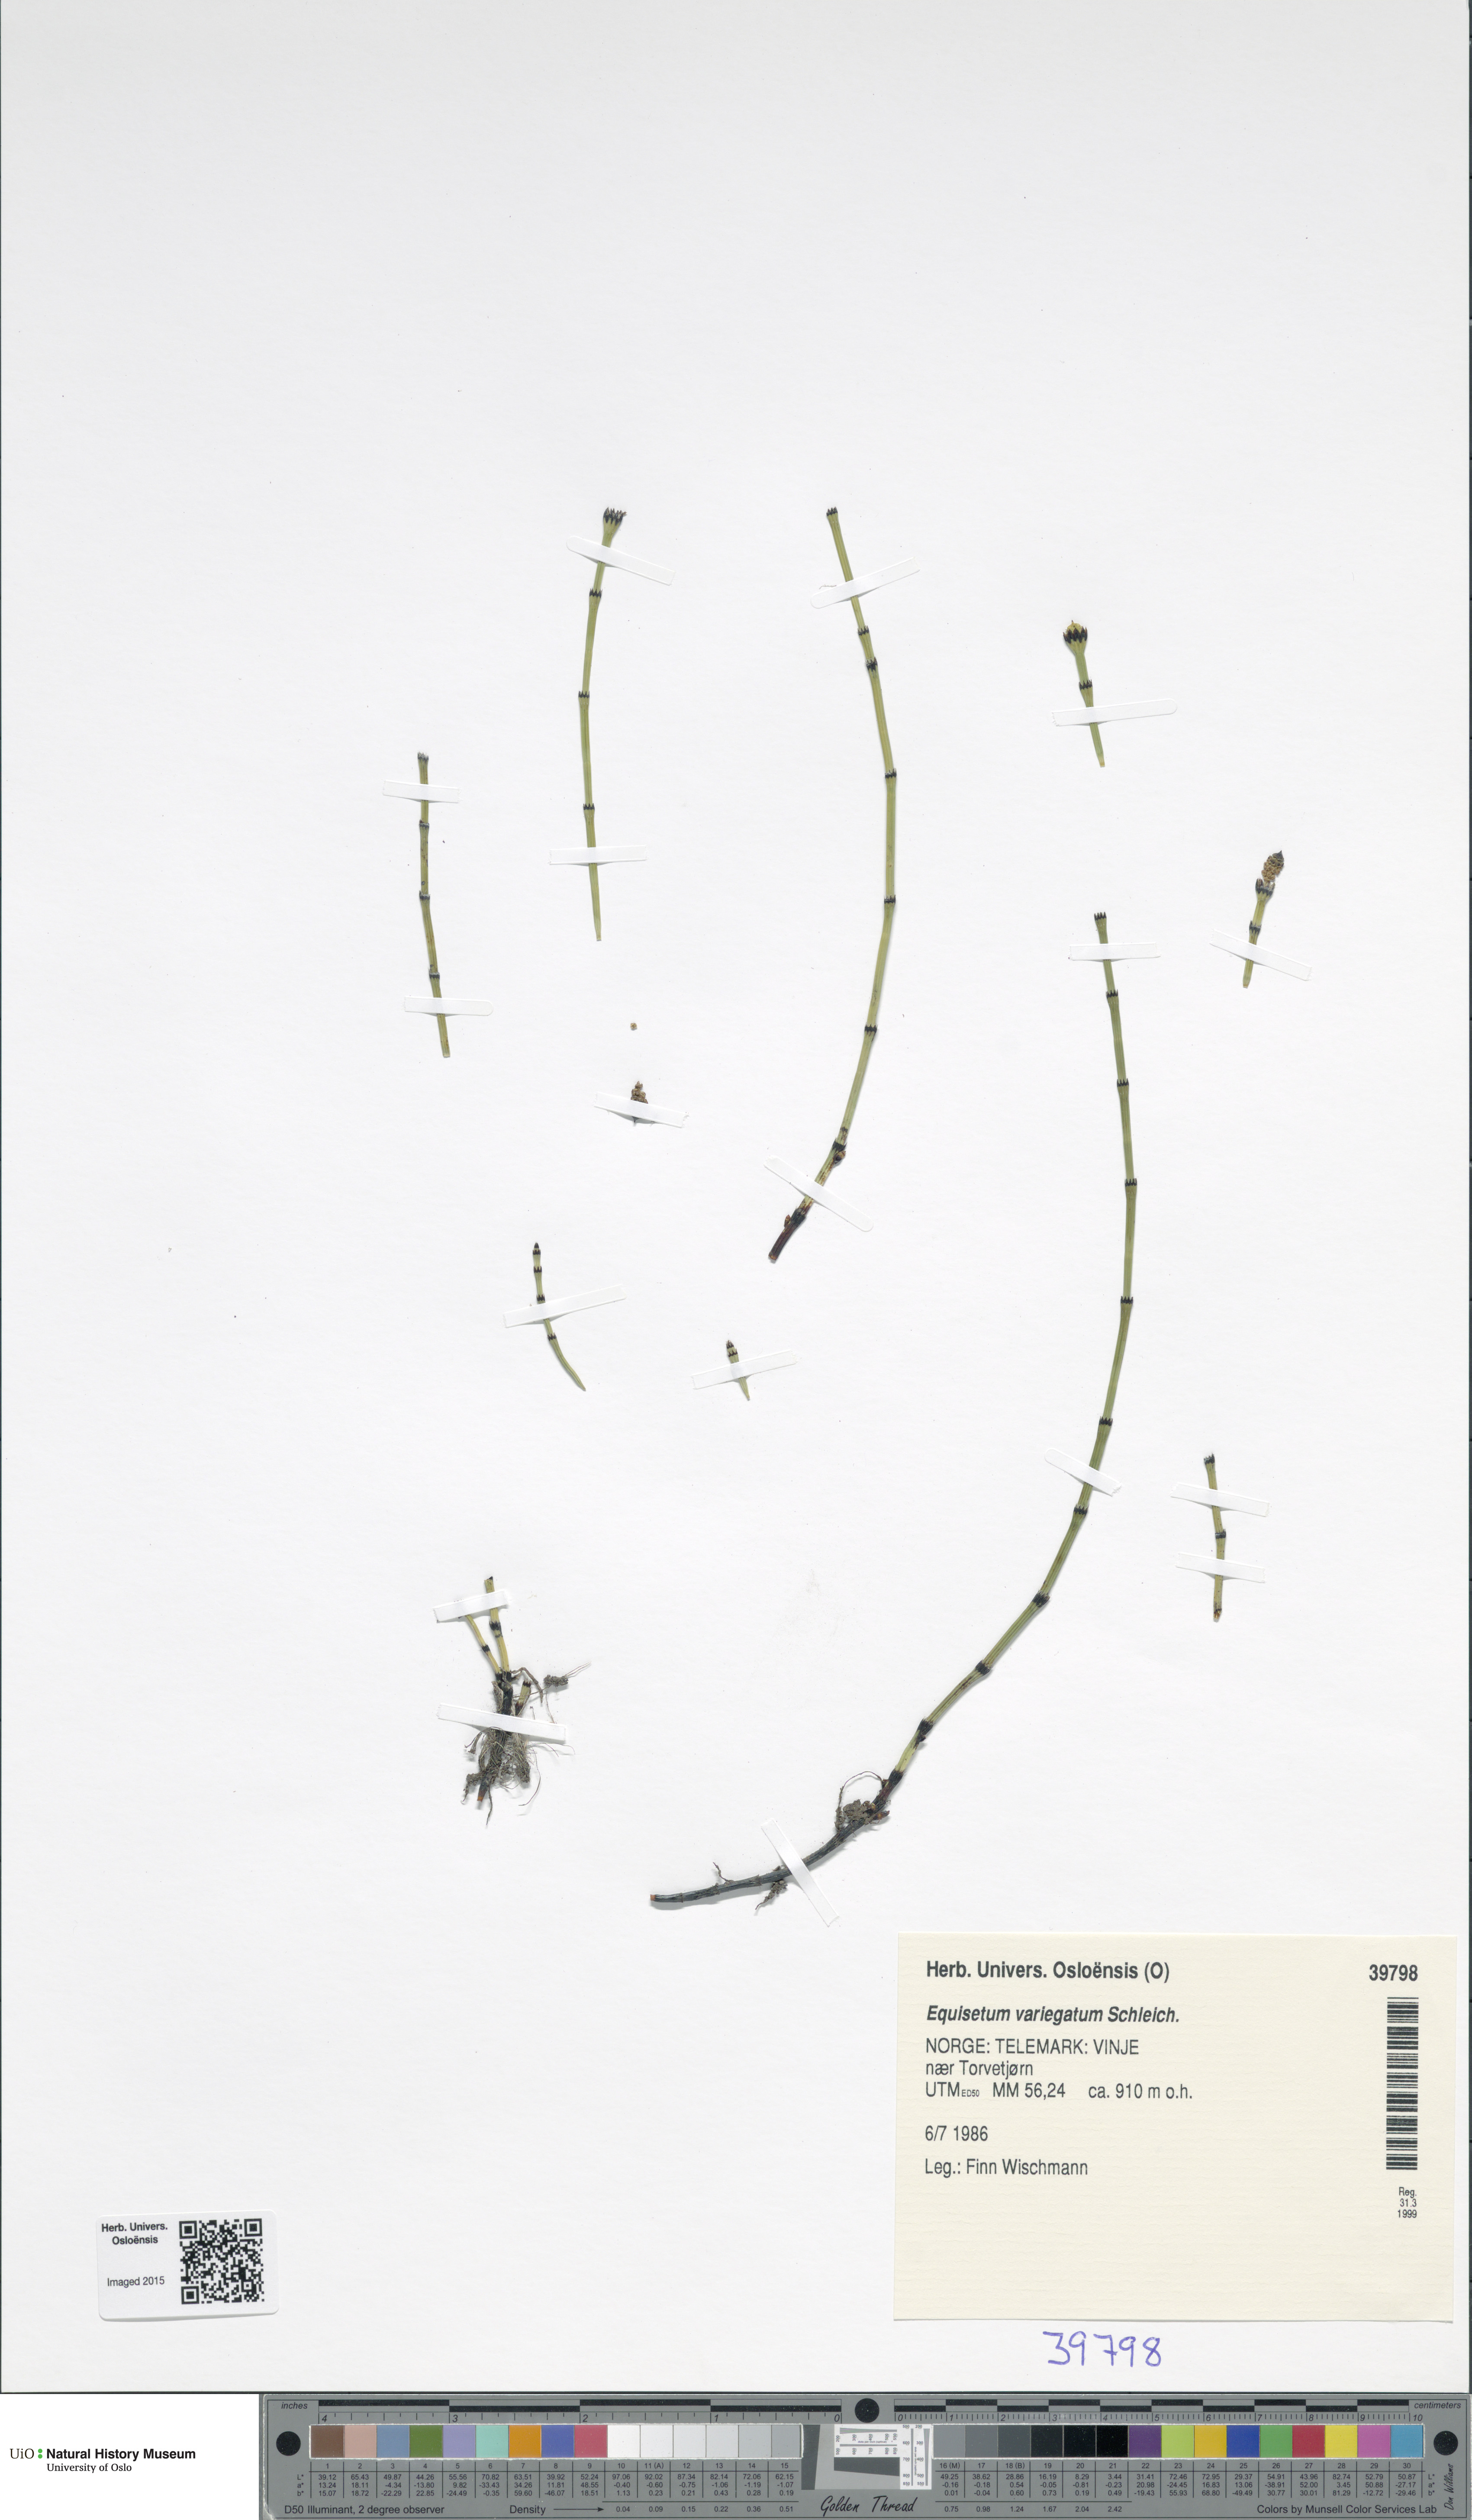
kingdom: Plantae
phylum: Tracheophyta
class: Polypodiopsida
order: Equisetales
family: Equisetaceae
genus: Equisetum
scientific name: Equisetum variegatum
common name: Variegated horsetail
